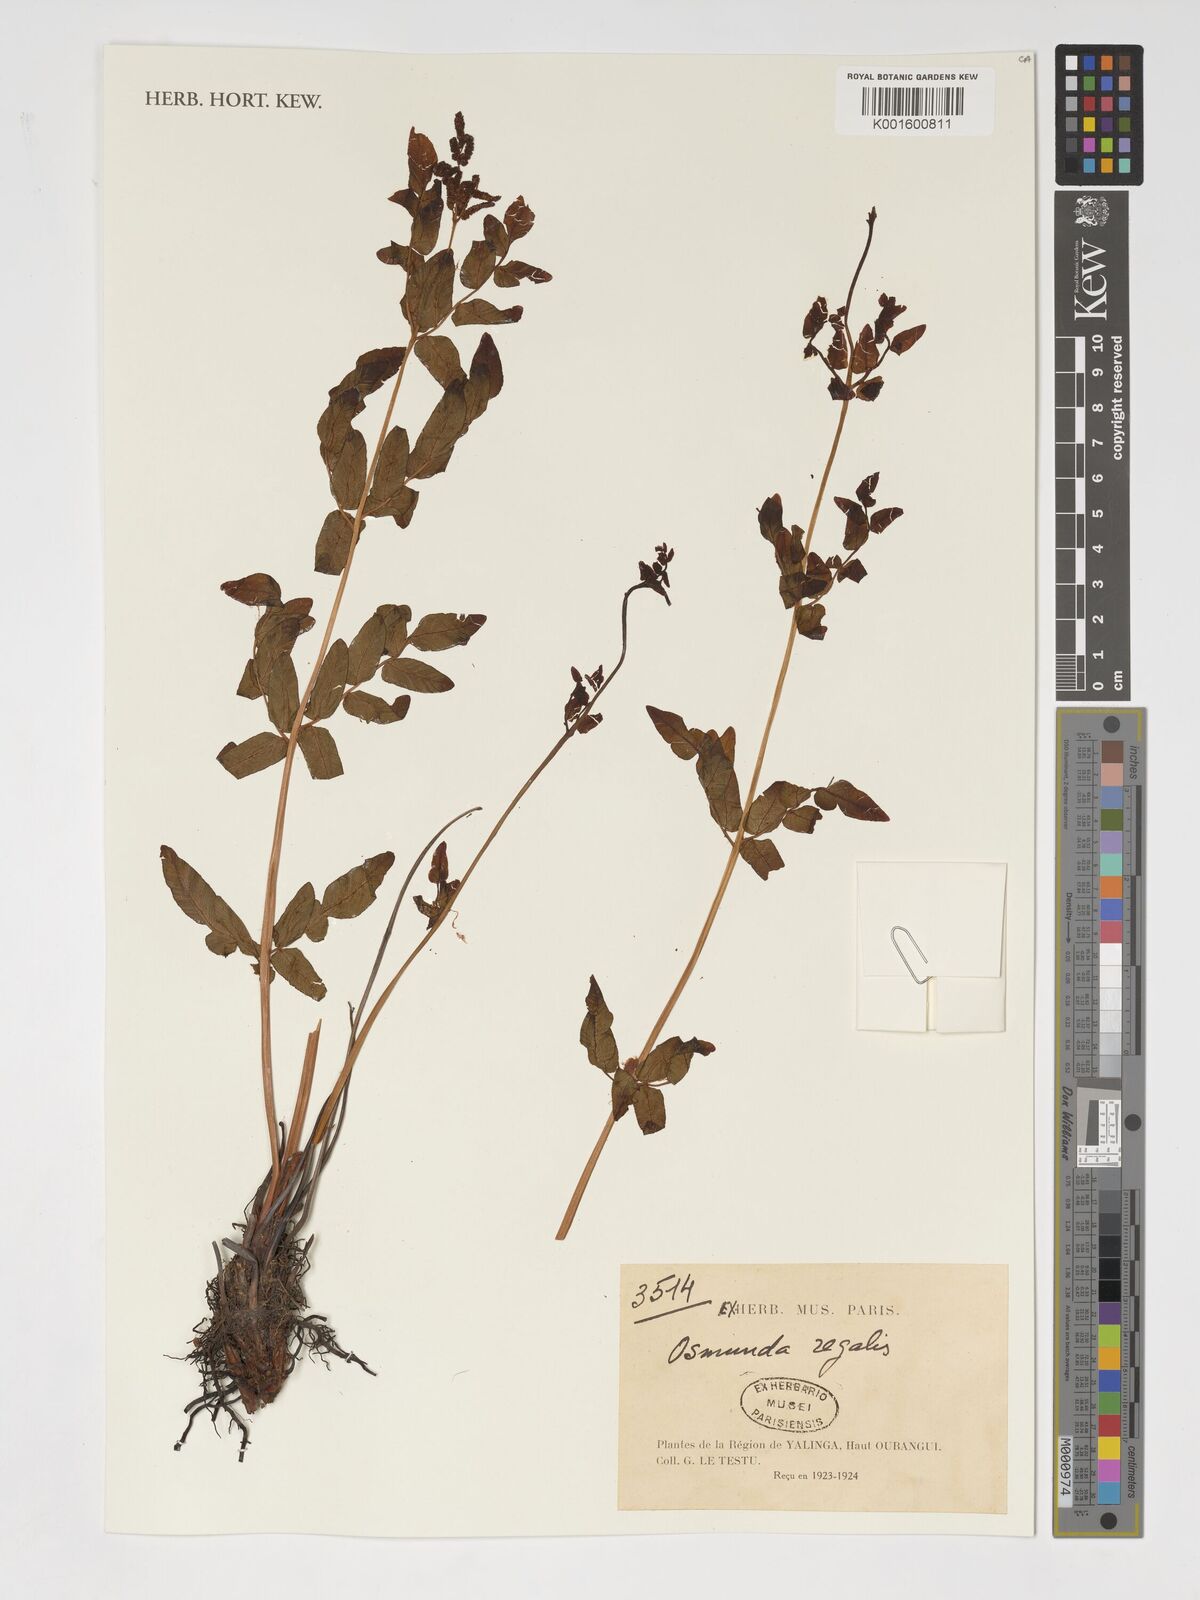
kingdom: Plantae
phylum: Tracheophyta
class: Polypodiopsida
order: Osmundales
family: Osmundaceae
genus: Osmunda
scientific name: Osmunda regalis
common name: Royal fern
